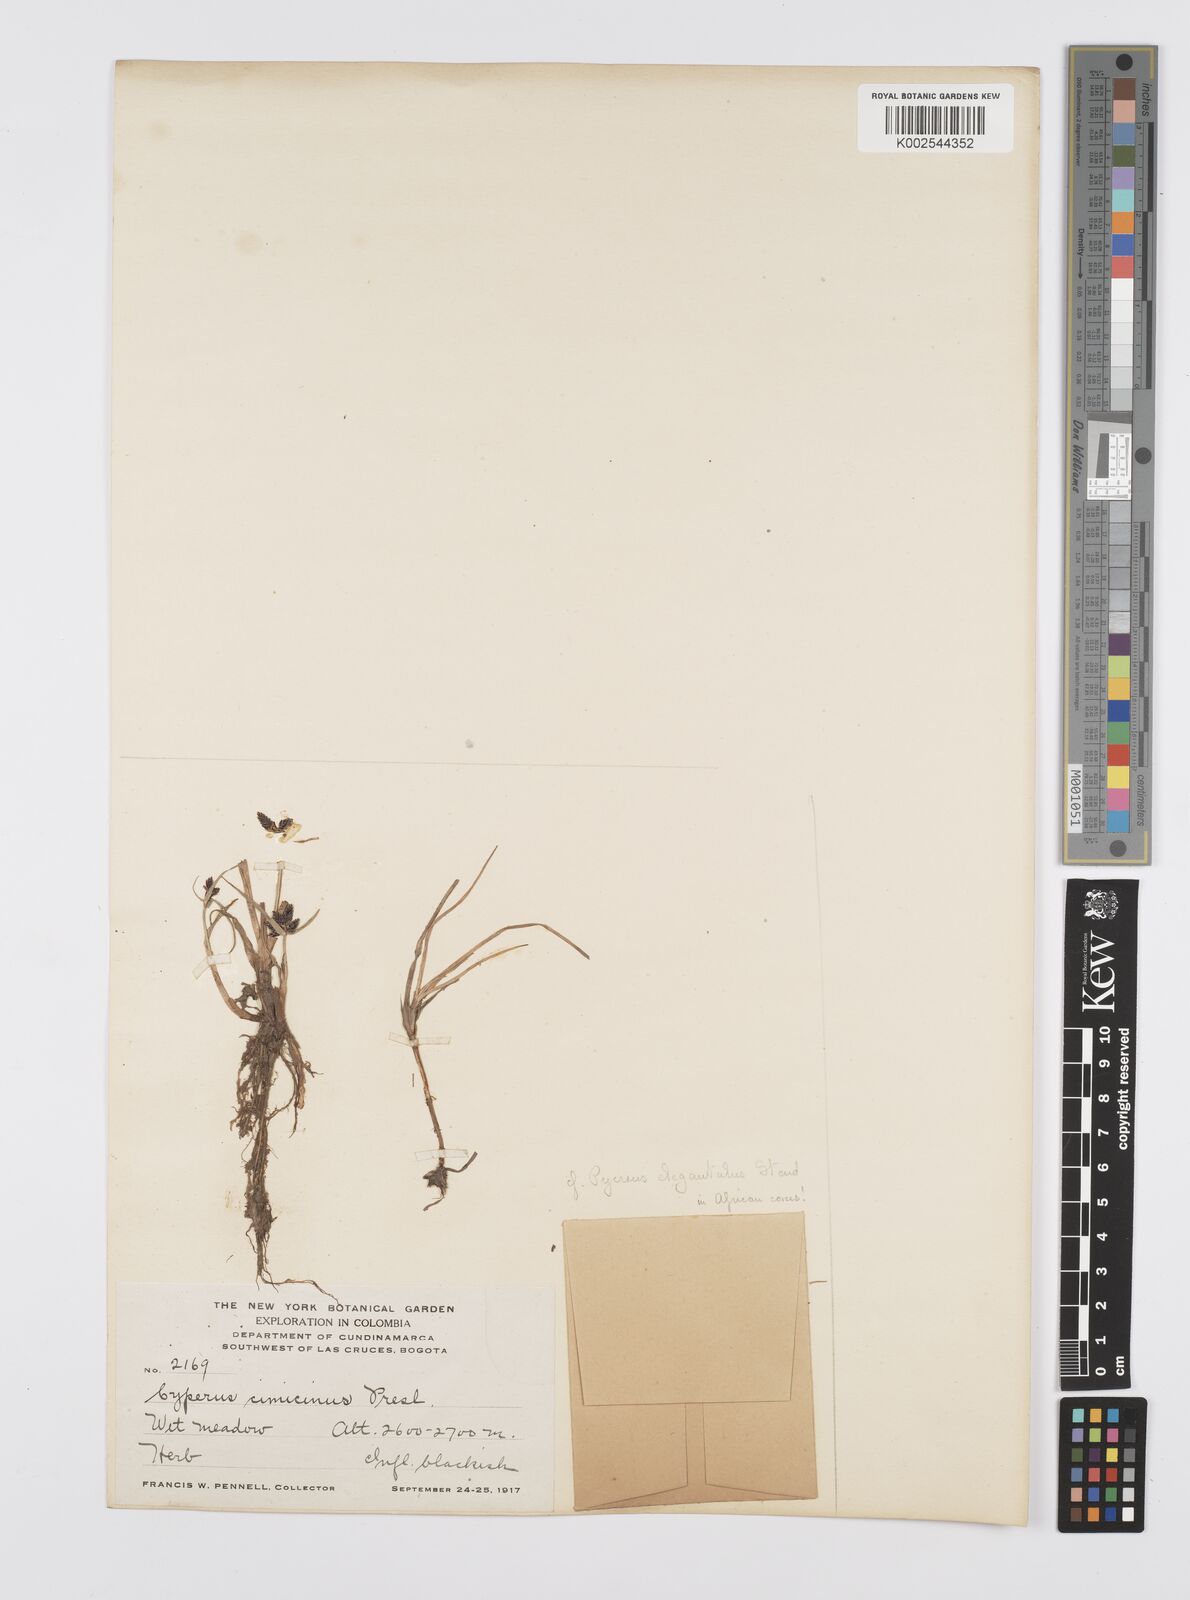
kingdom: Plantae
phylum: Tracheophyta
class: Liliopsida
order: Poales
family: Cyperaceae
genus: Cyperus
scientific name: Cyperus melanostachyus
